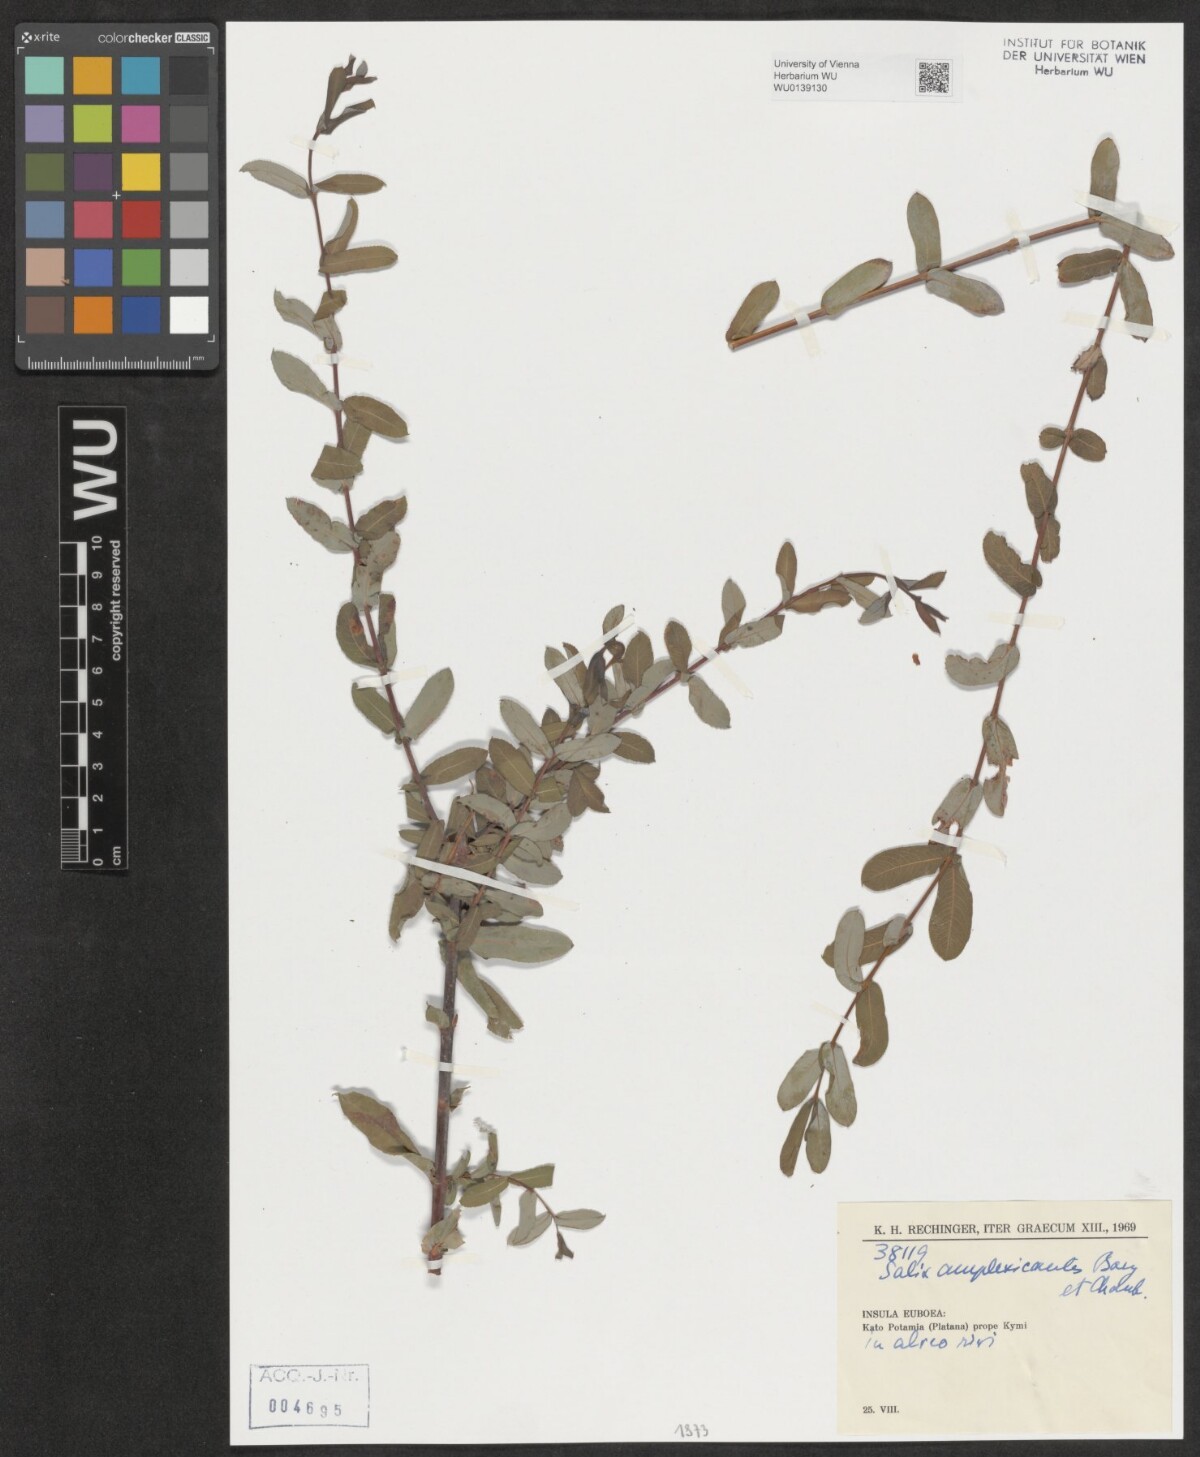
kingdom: Plantae
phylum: Tracheophyta
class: Magnoliopsida
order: Malpighiales
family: Salicaceae
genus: Salix
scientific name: Salix amplexicaulis
